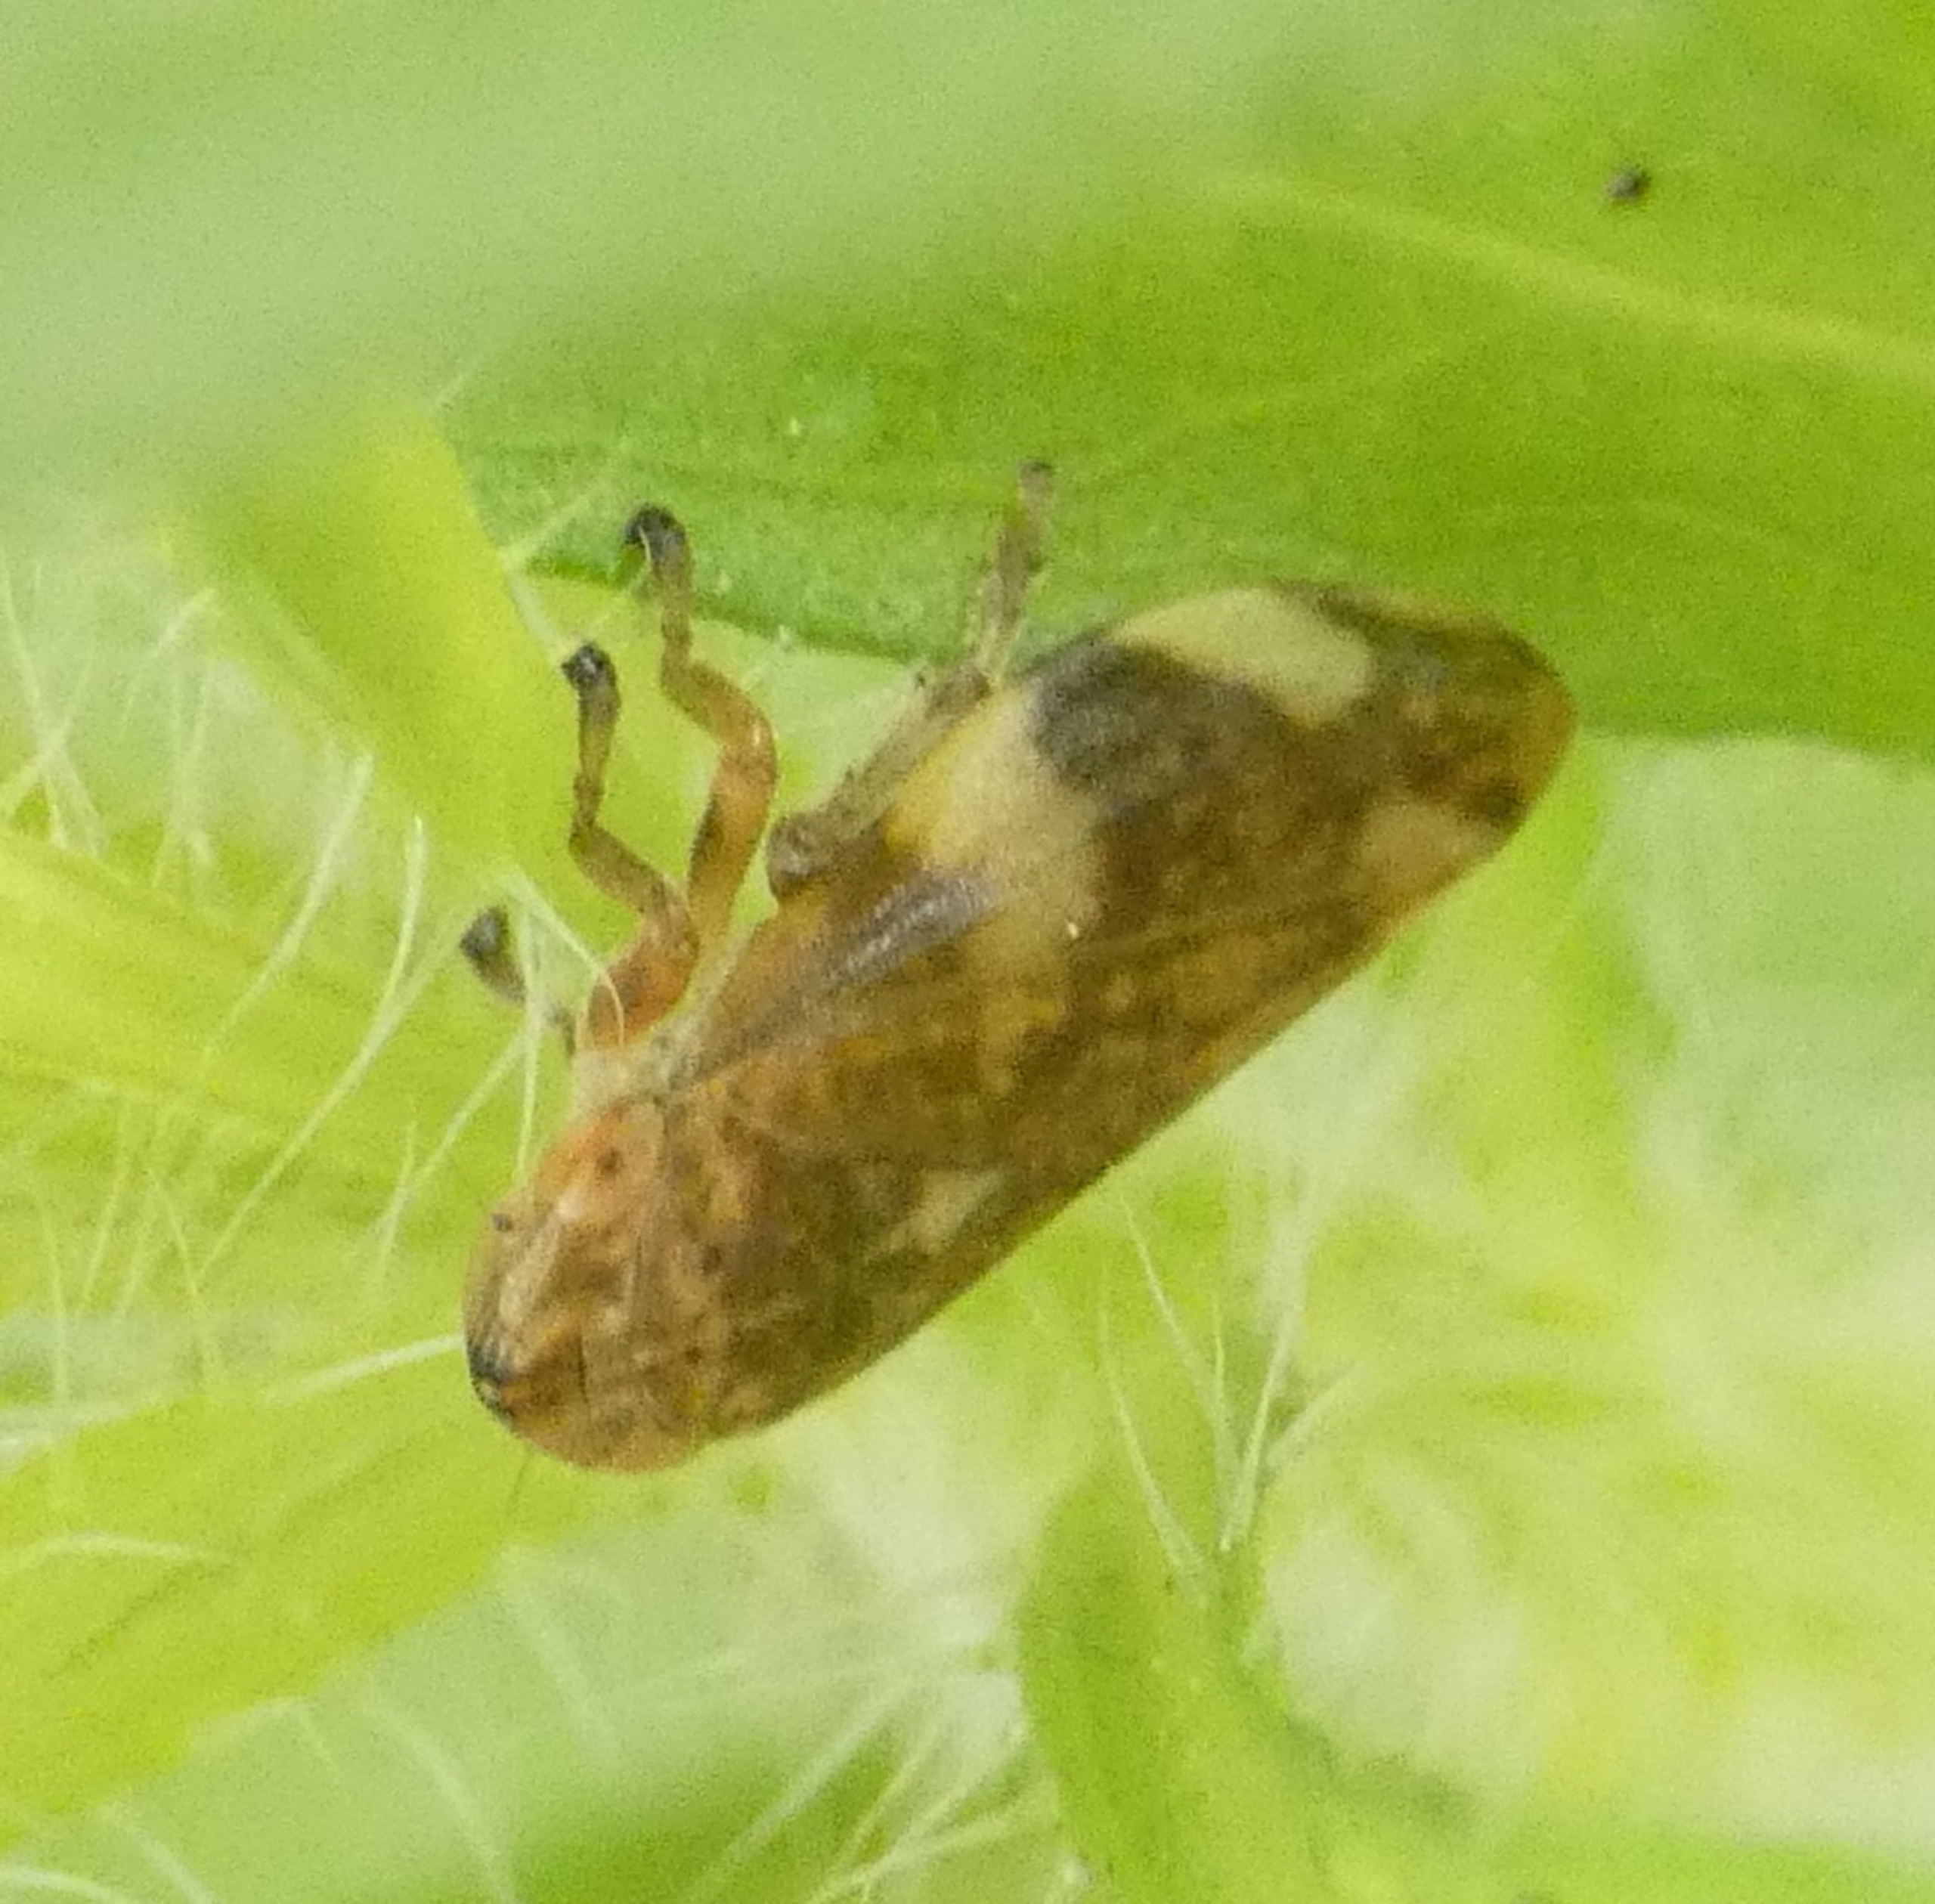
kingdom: Animalia
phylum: Arthropoda
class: Insecta
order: Hemiptera
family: Aphrophoridae
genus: Philaenus
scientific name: Philaenus spumarius
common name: Almindelig skumcikade
